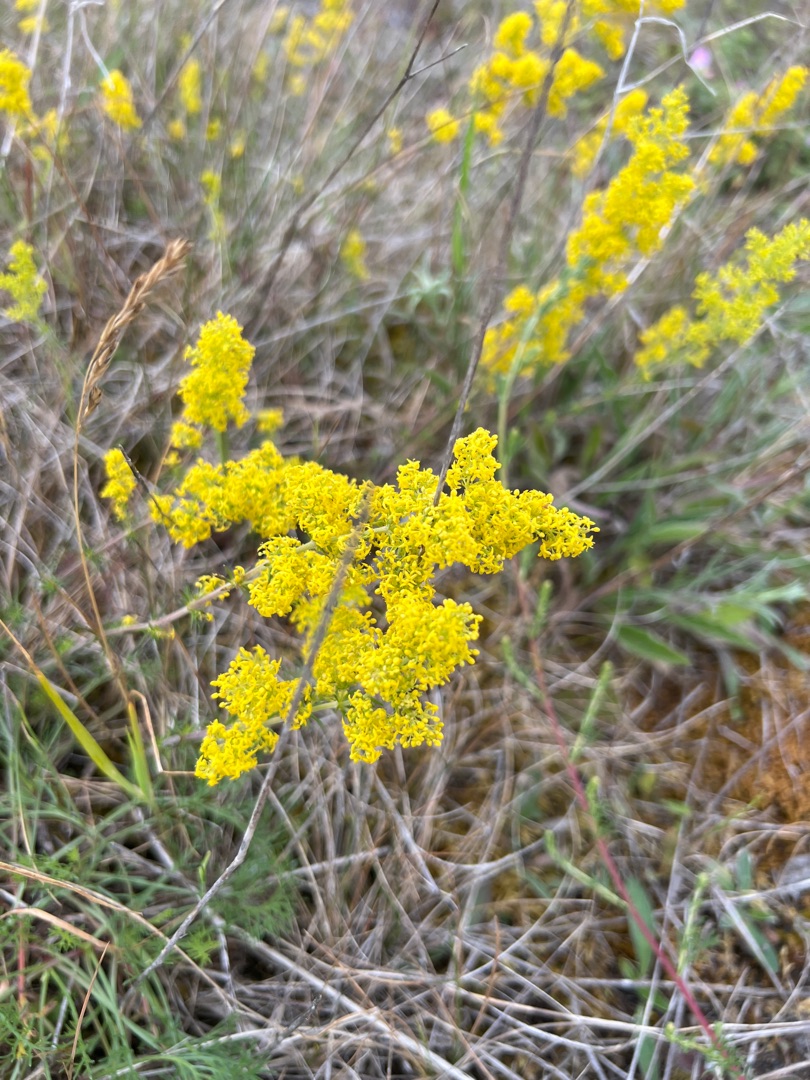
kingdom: Plantae
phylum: Tracheophyta
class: Magnoliopsida
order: Gentianales
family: Rubiaceae
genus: Galium
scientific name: Galium verum
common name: Gul snerre
